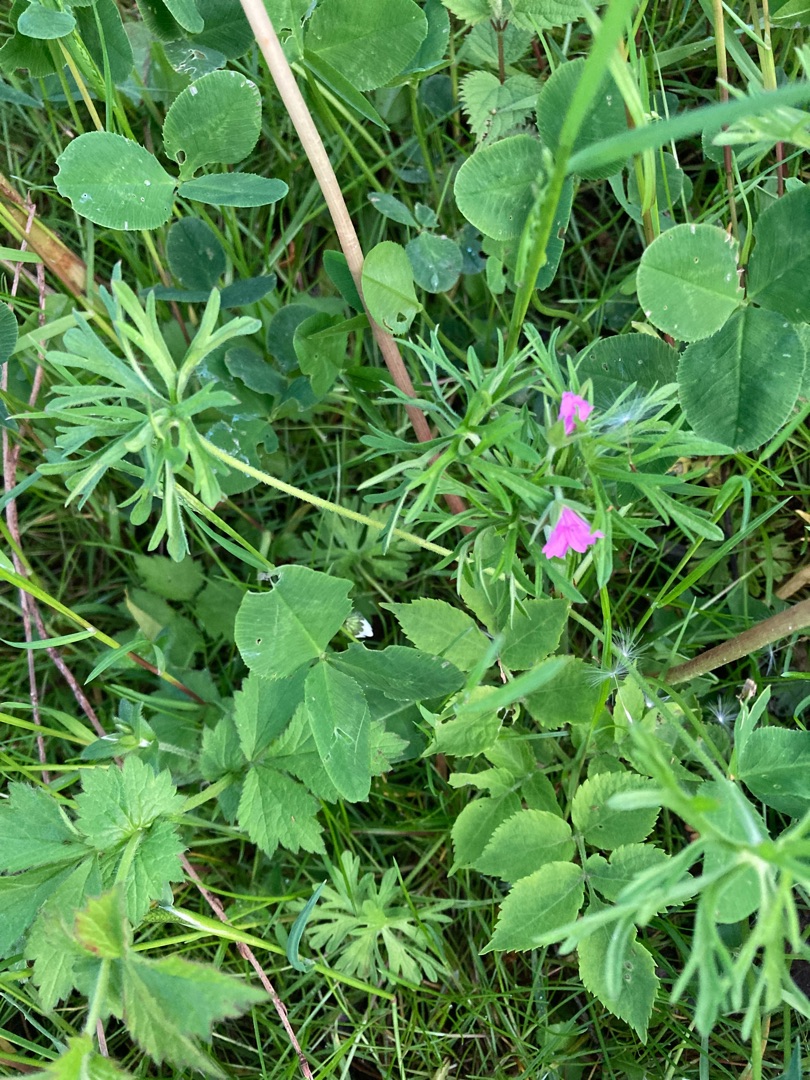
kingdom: Plantae
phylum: Tracheophyta
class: Magnoliopsida
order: Geraniales
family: Geraniaceae
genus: Geranium
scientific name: Geranium dissectum
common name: Kløftet storkenæb
